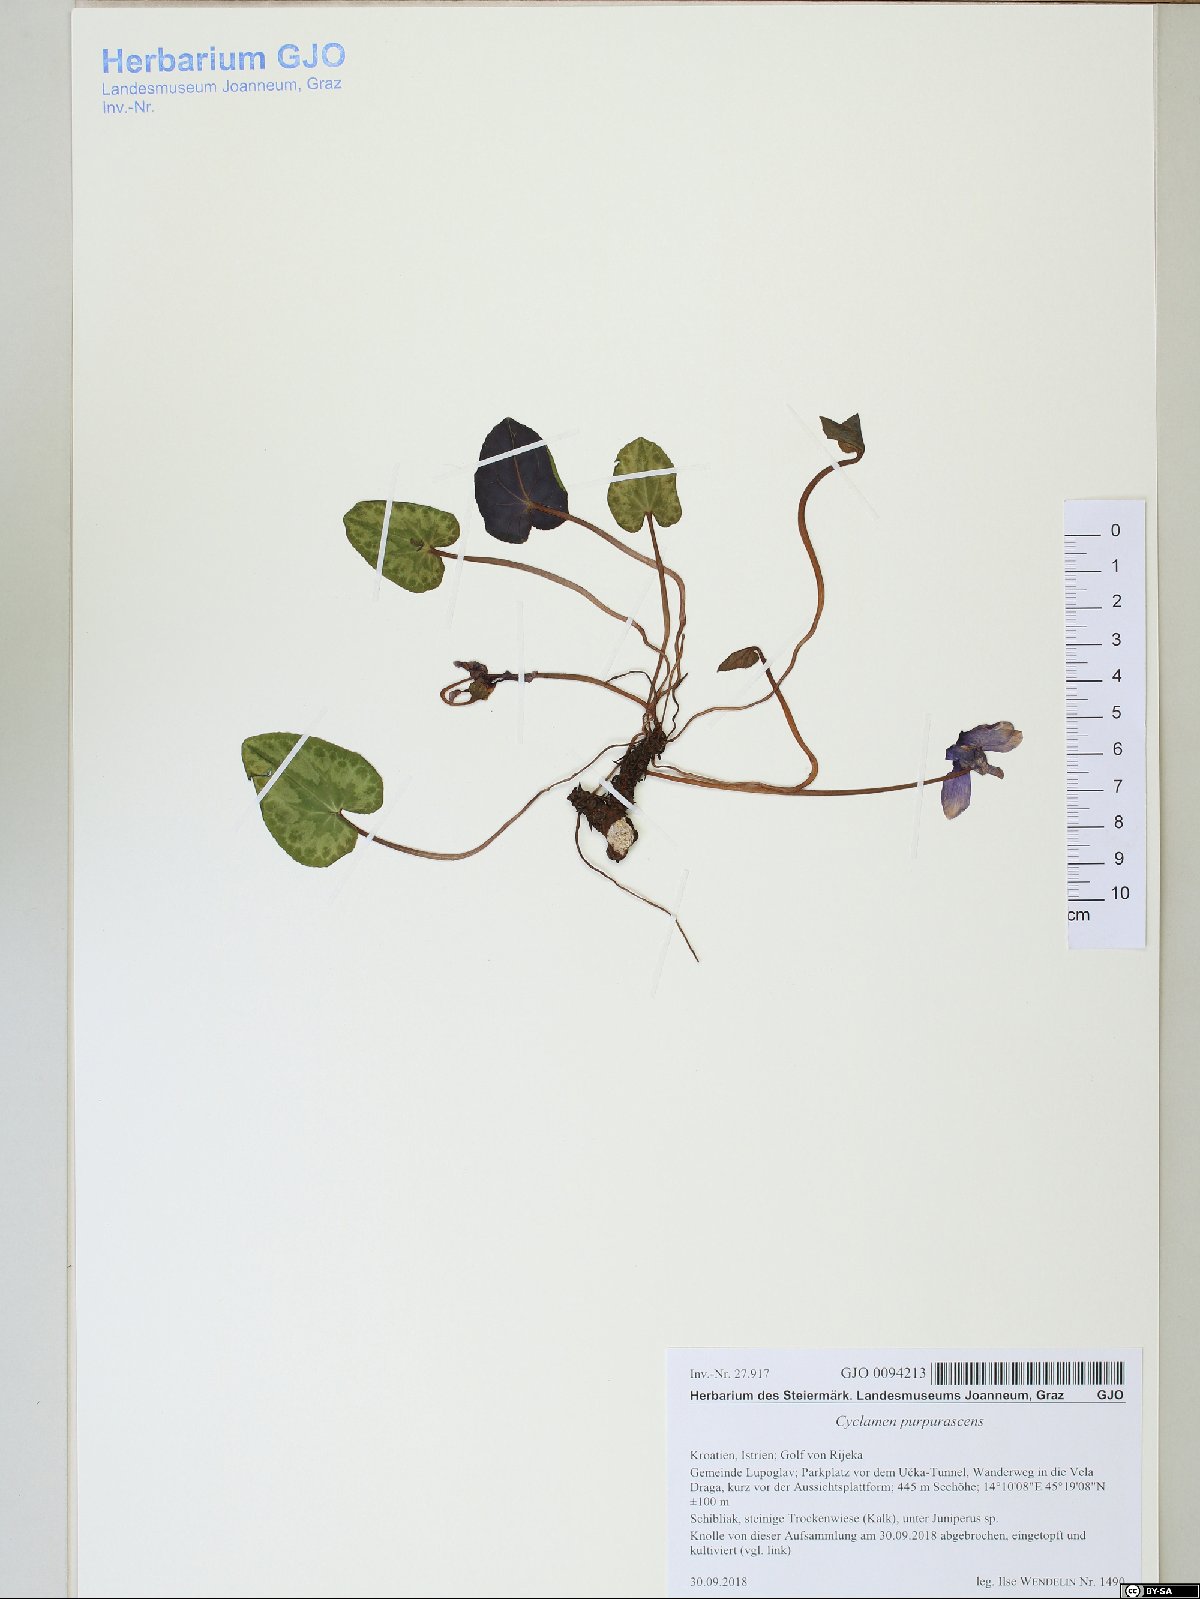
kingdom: Plantae
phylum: Tracheophyta
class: Magnoliopsida
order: Ericales
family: Primulaceae
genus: Cyclamen
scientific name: Cyclamen purpurascens
